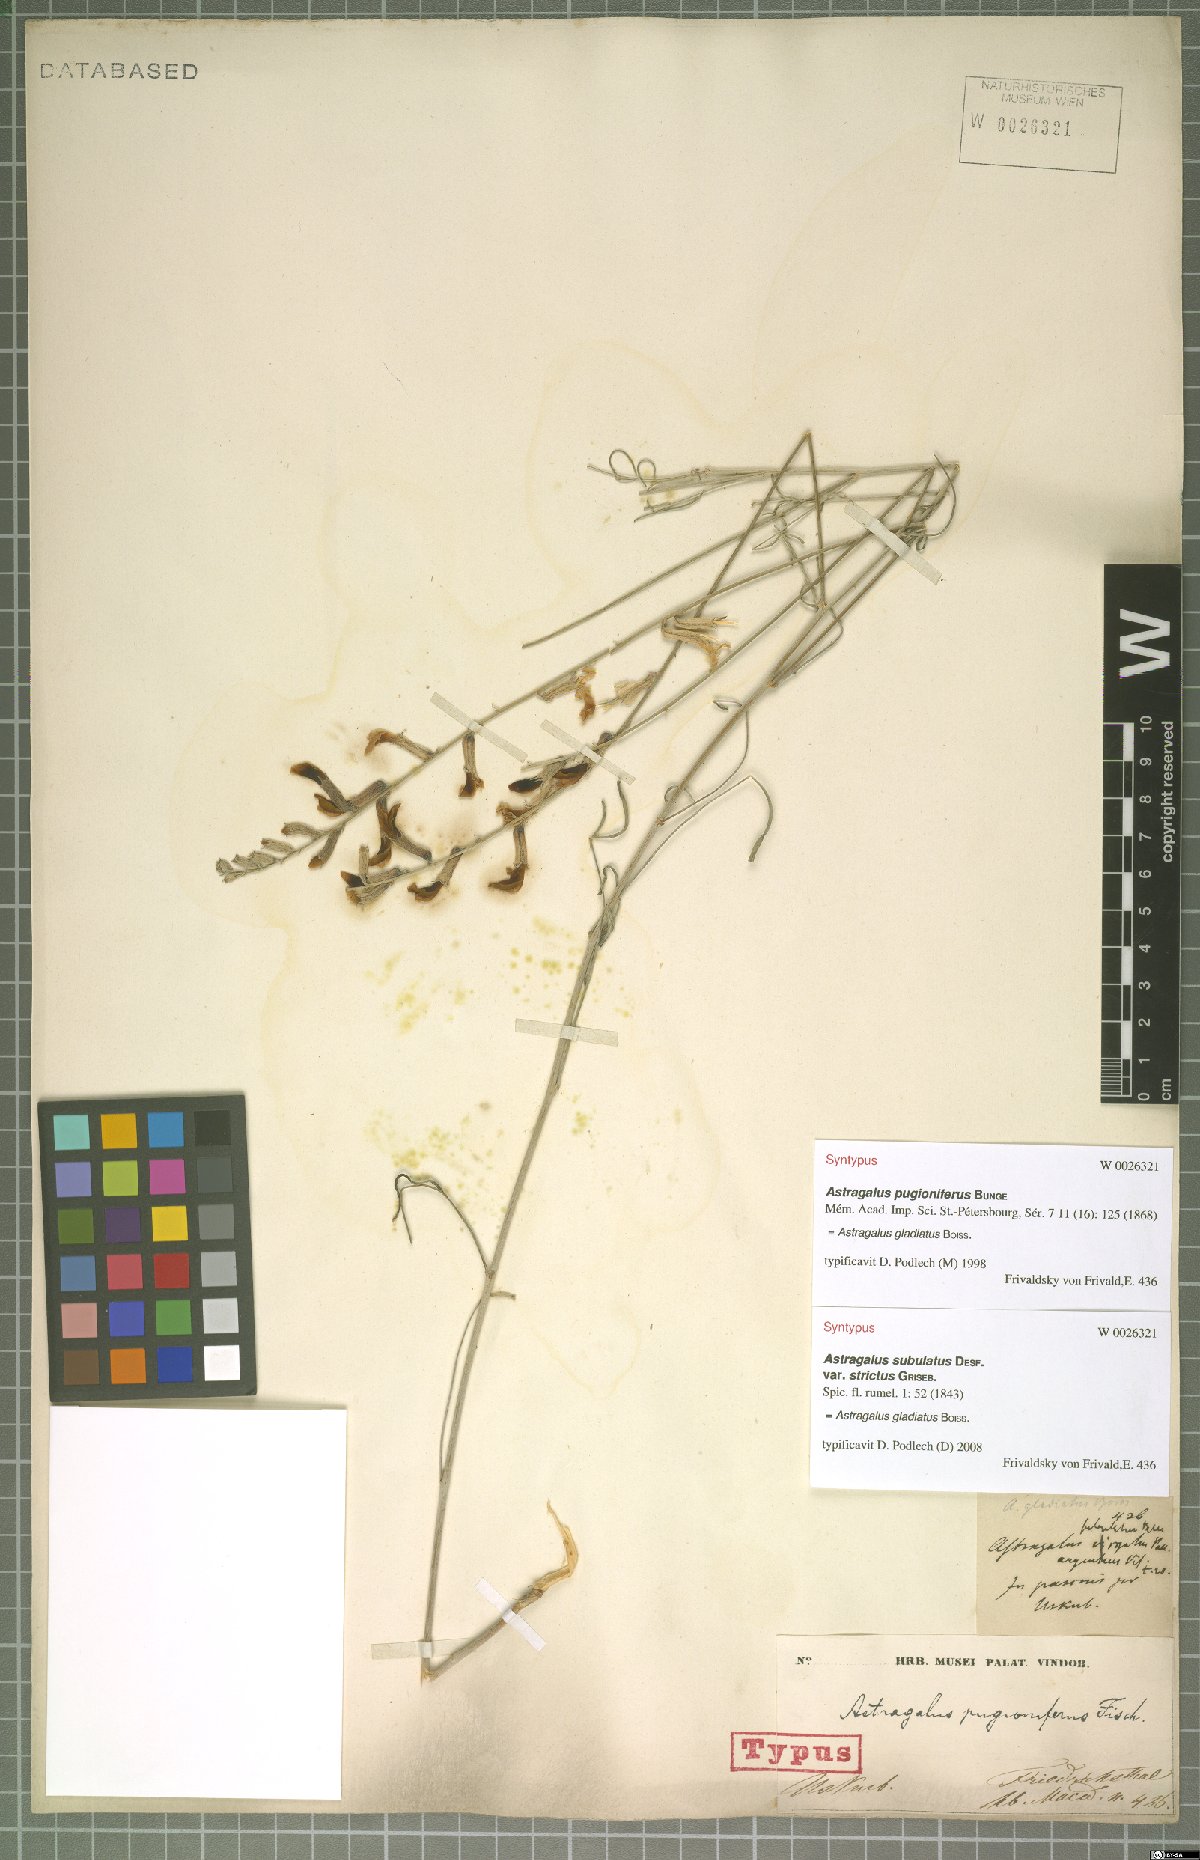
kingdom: Plantae
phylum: Tracheophyta
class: Magnoliopsida
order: Fabales
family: Fabaceae
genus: Astragalus
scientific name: Astragalus gladiatus
